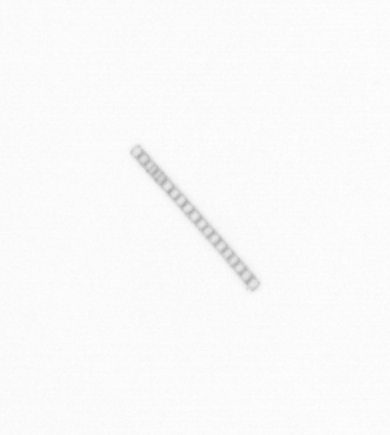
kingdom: Chromista
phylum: Ochrophyta
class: Bacillariophyceae
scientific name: Bacillariophyceae
